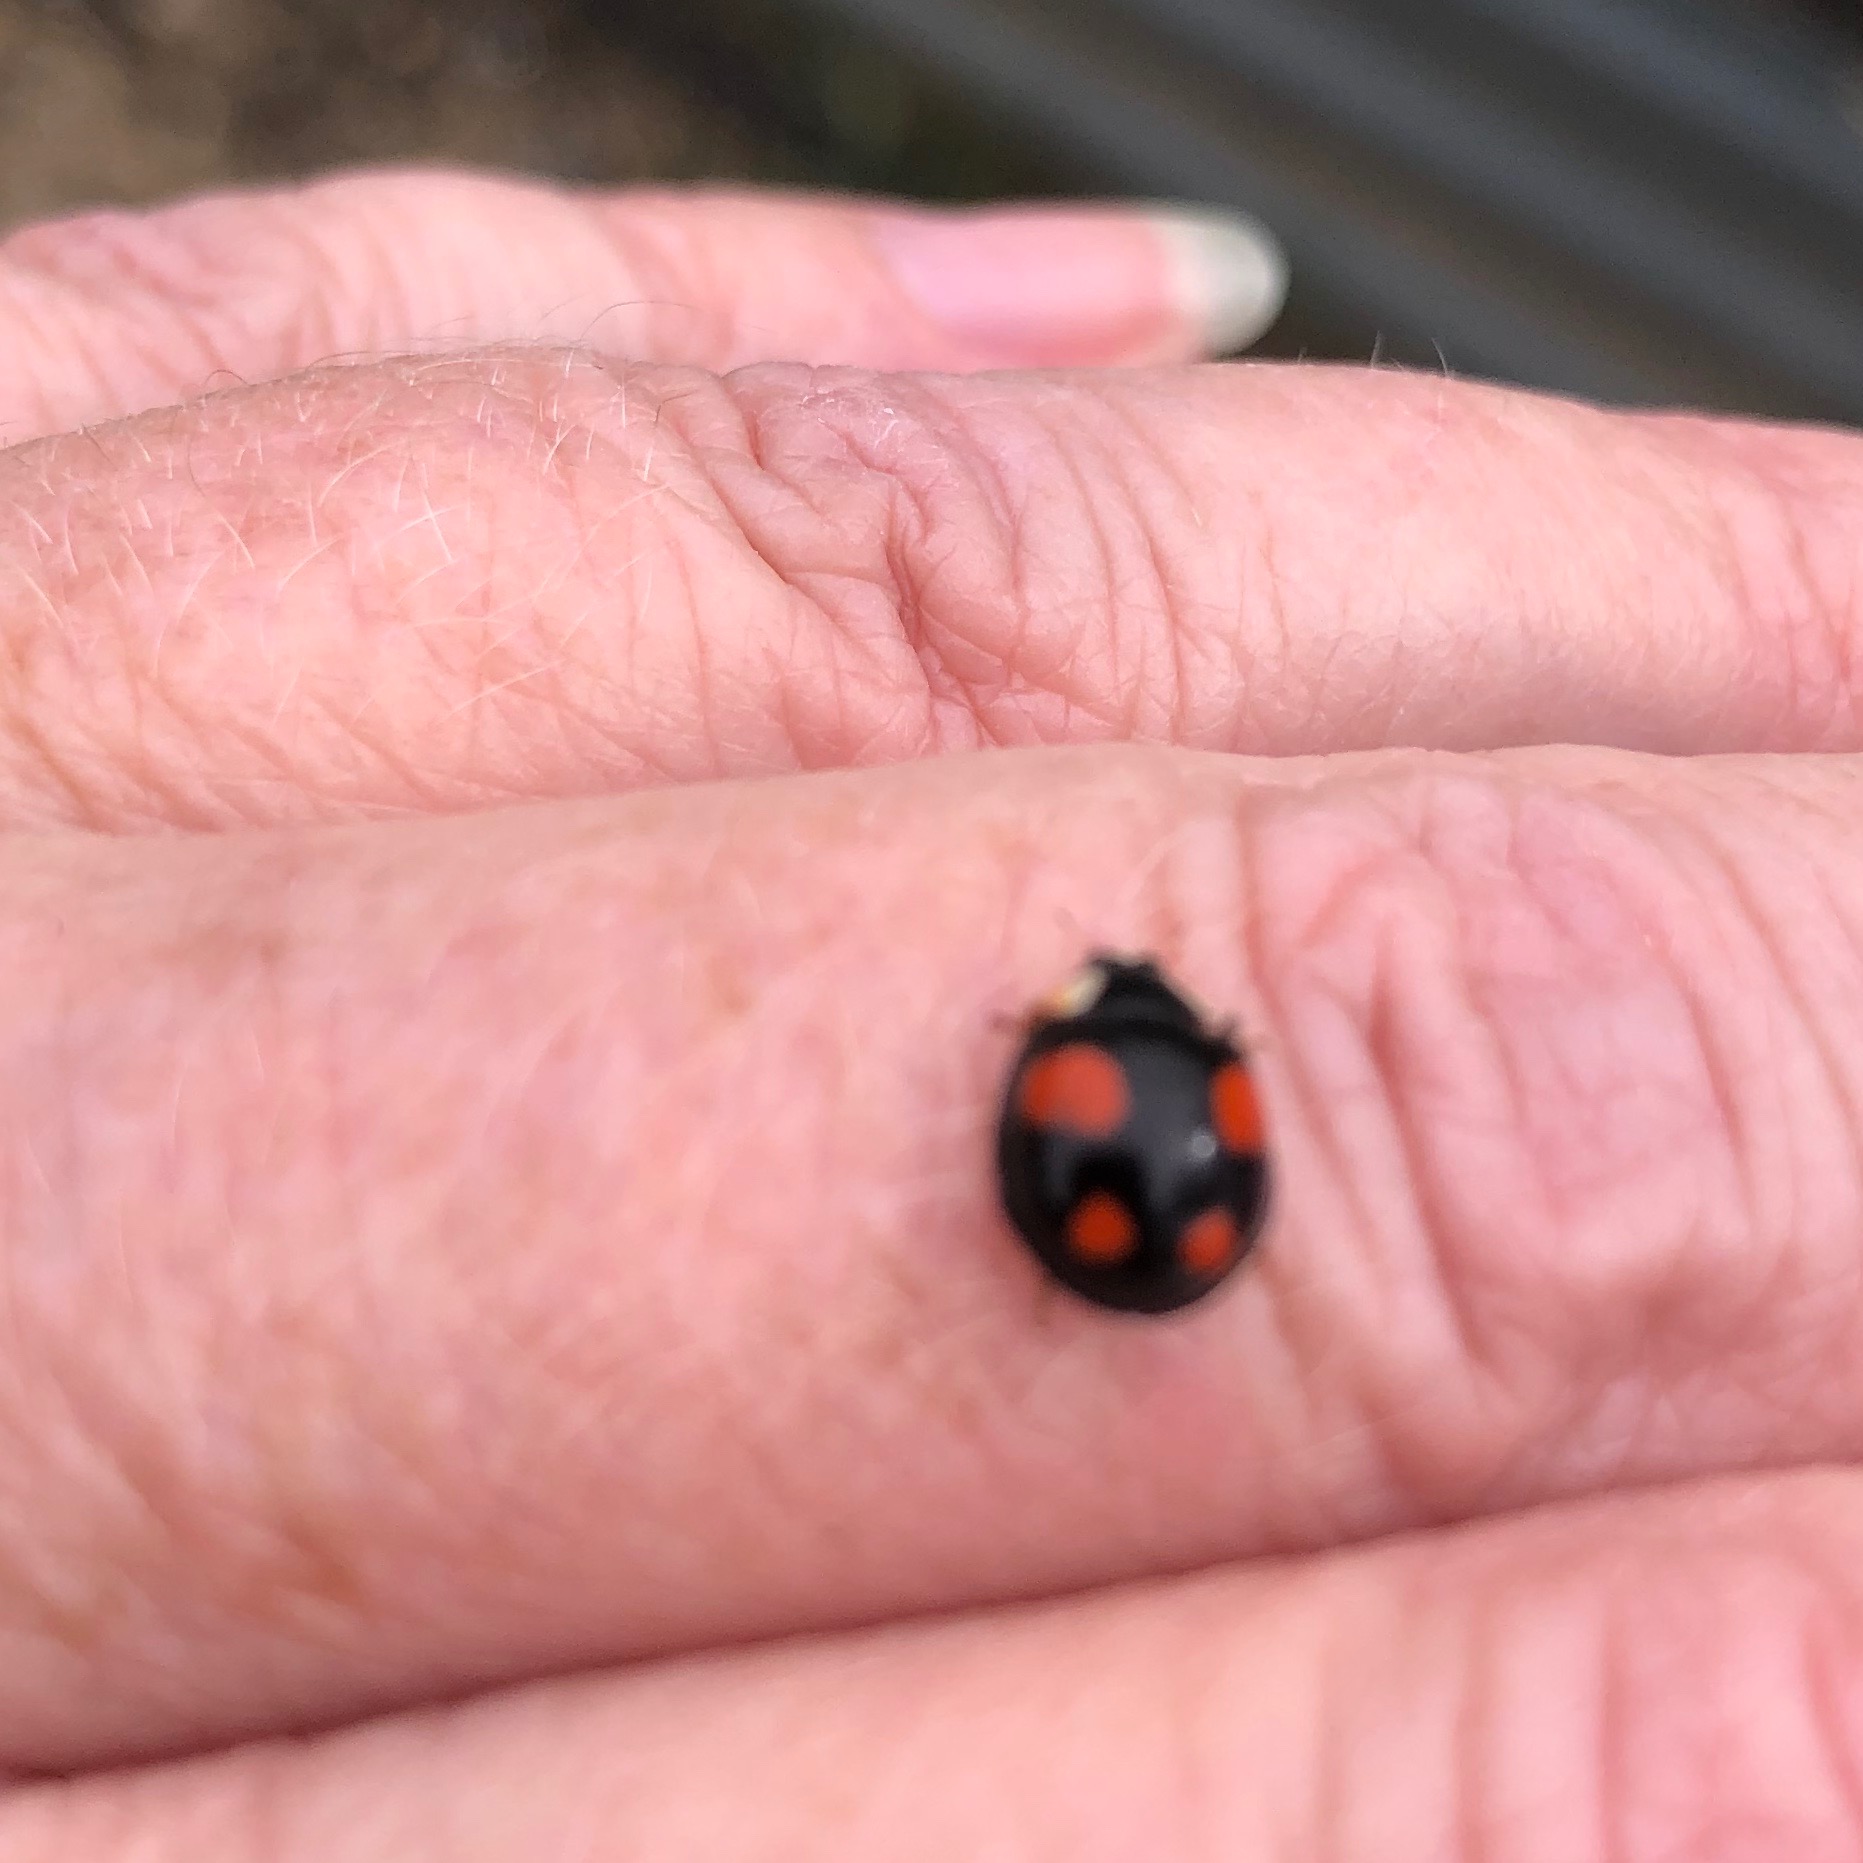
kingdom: Animalia
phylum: Arthropoda
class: Insecta
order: Coleoptera
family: Coccinellidae
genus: Harmonia
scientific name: Harmonia axyridis
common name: Harlekinmariehøne
